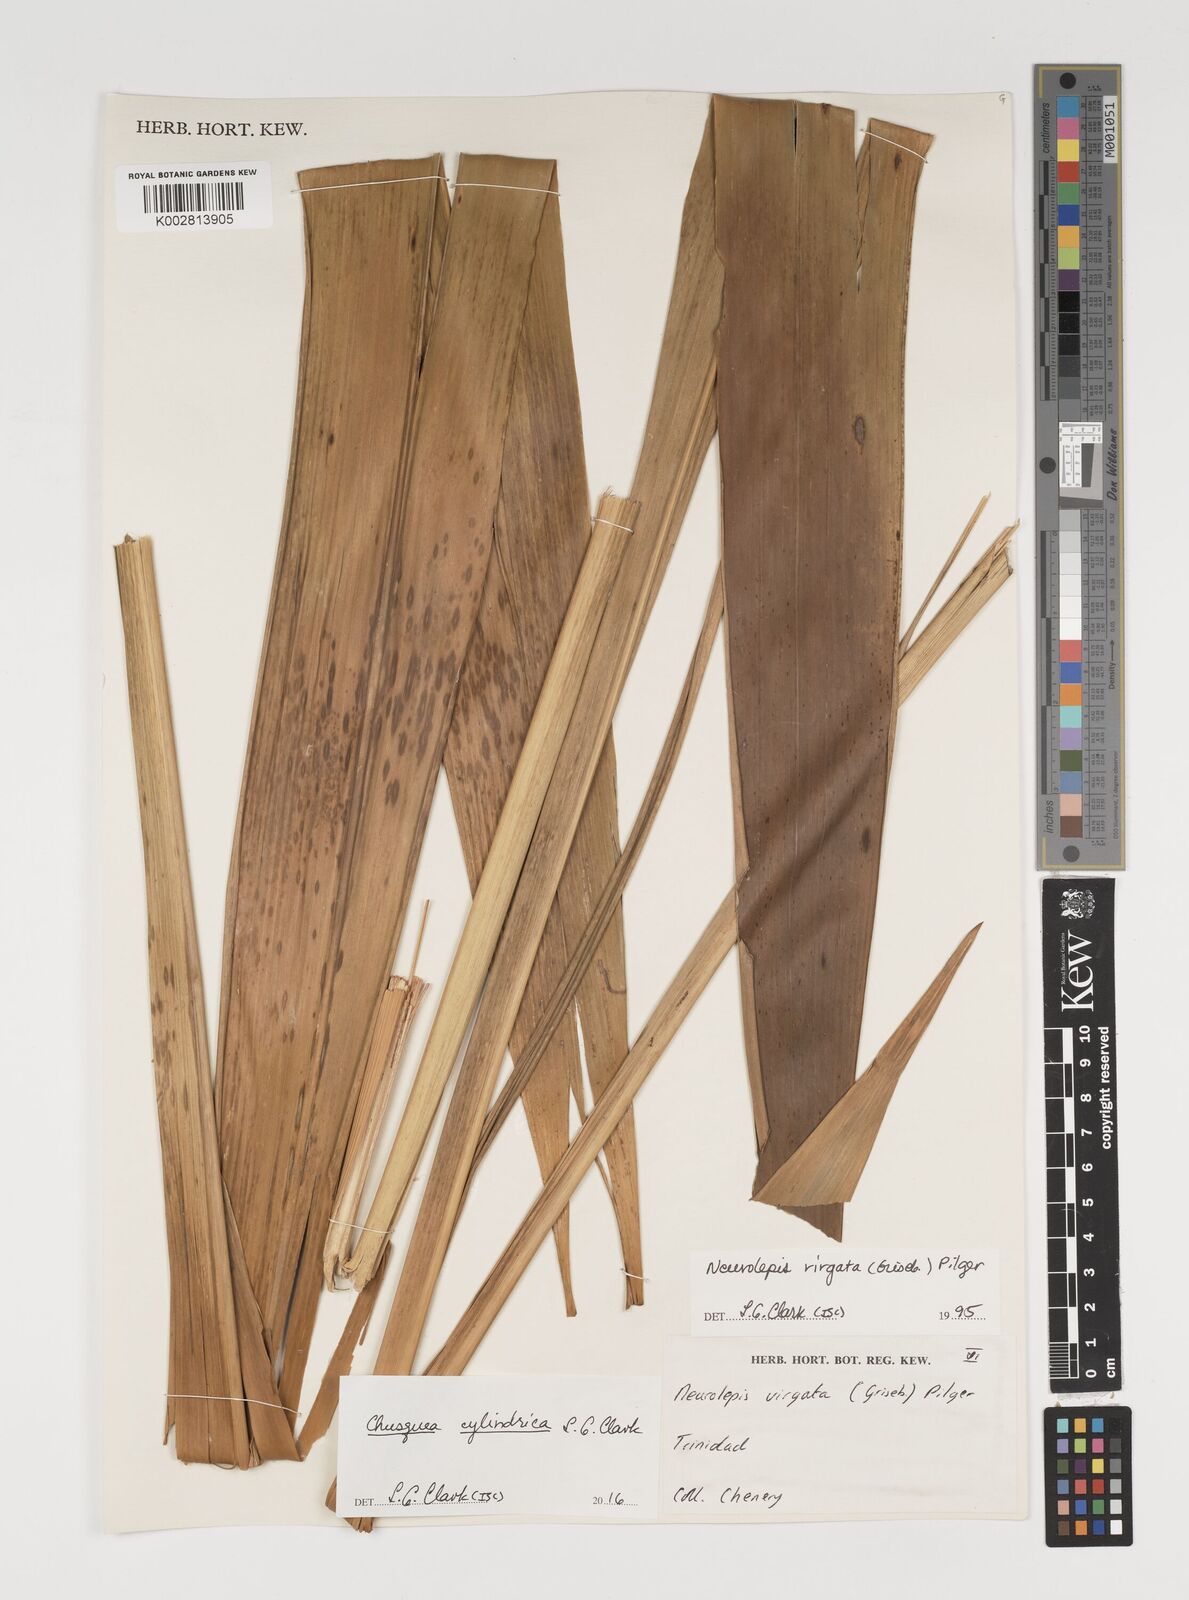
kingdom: Plantae
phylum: Tracheophyta
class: Liliopsida
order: Poales
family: Poaceae
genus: Chusquea
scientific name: Chusquea cylindrica
